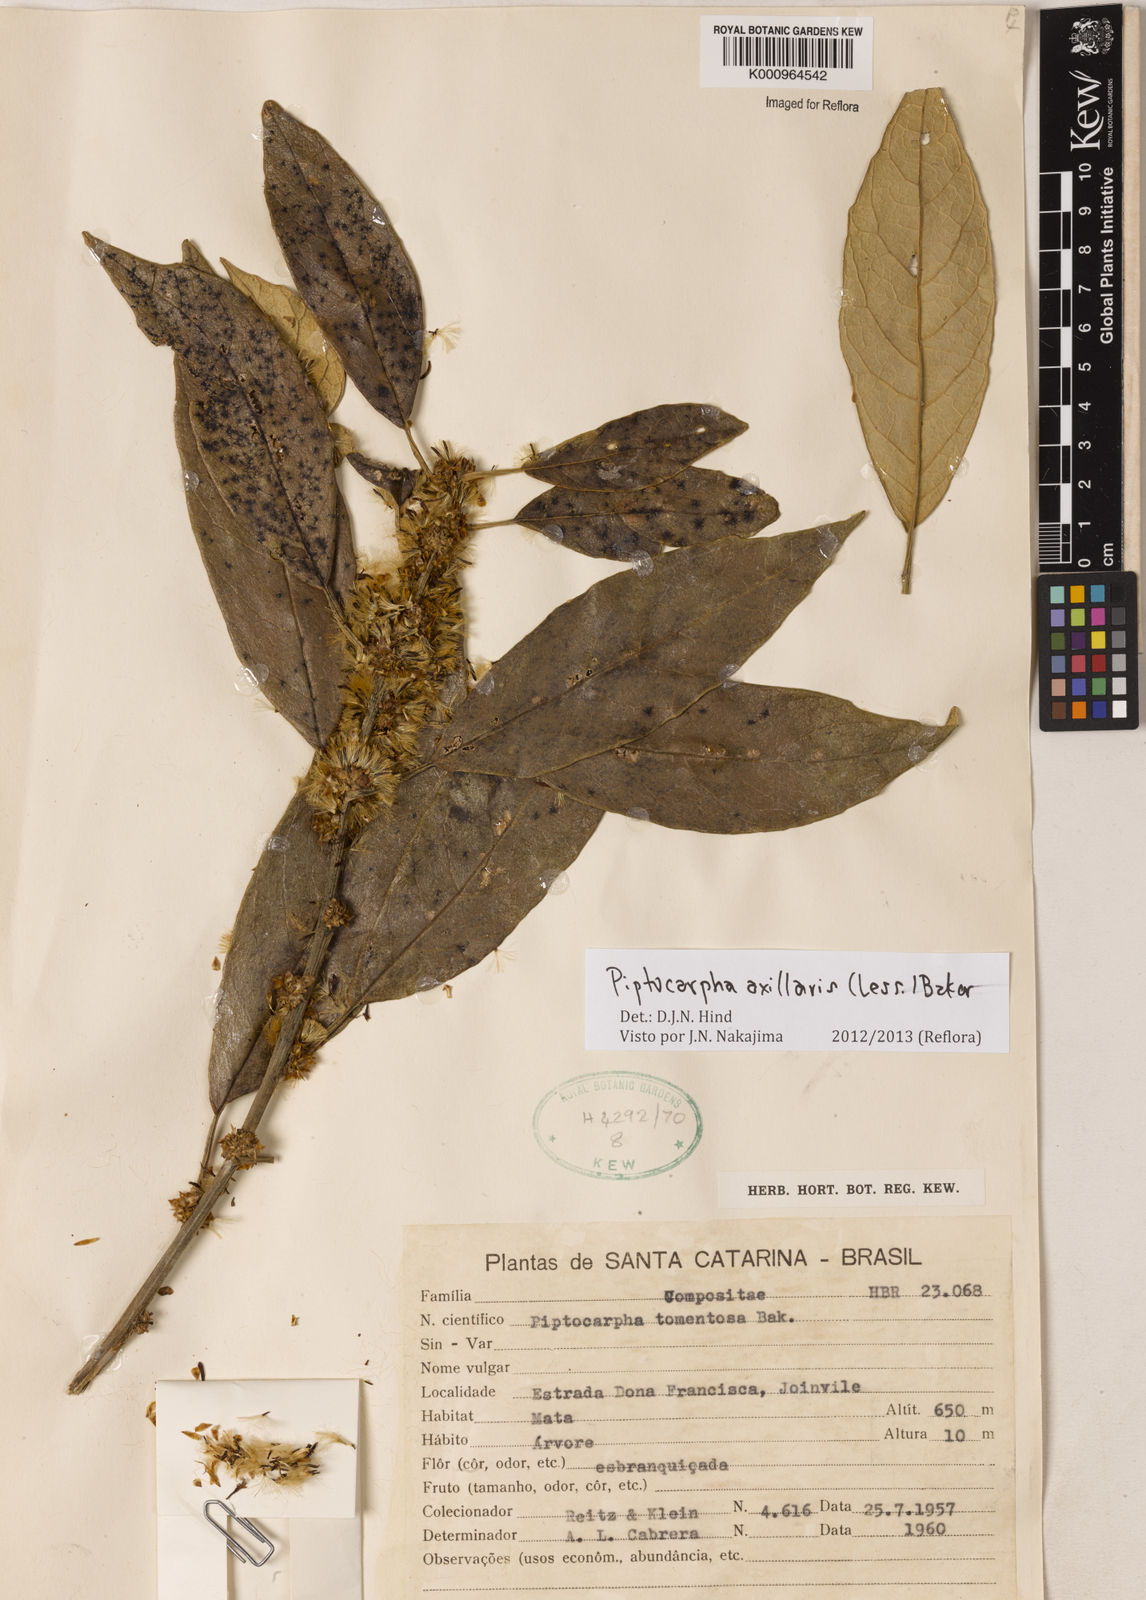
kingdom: Plantae
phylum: Tracheophyta
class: Magnoliopsida
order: Asterales
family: Asteraceae
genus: Piptocarpha
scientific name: Piptocarpha axillaris
